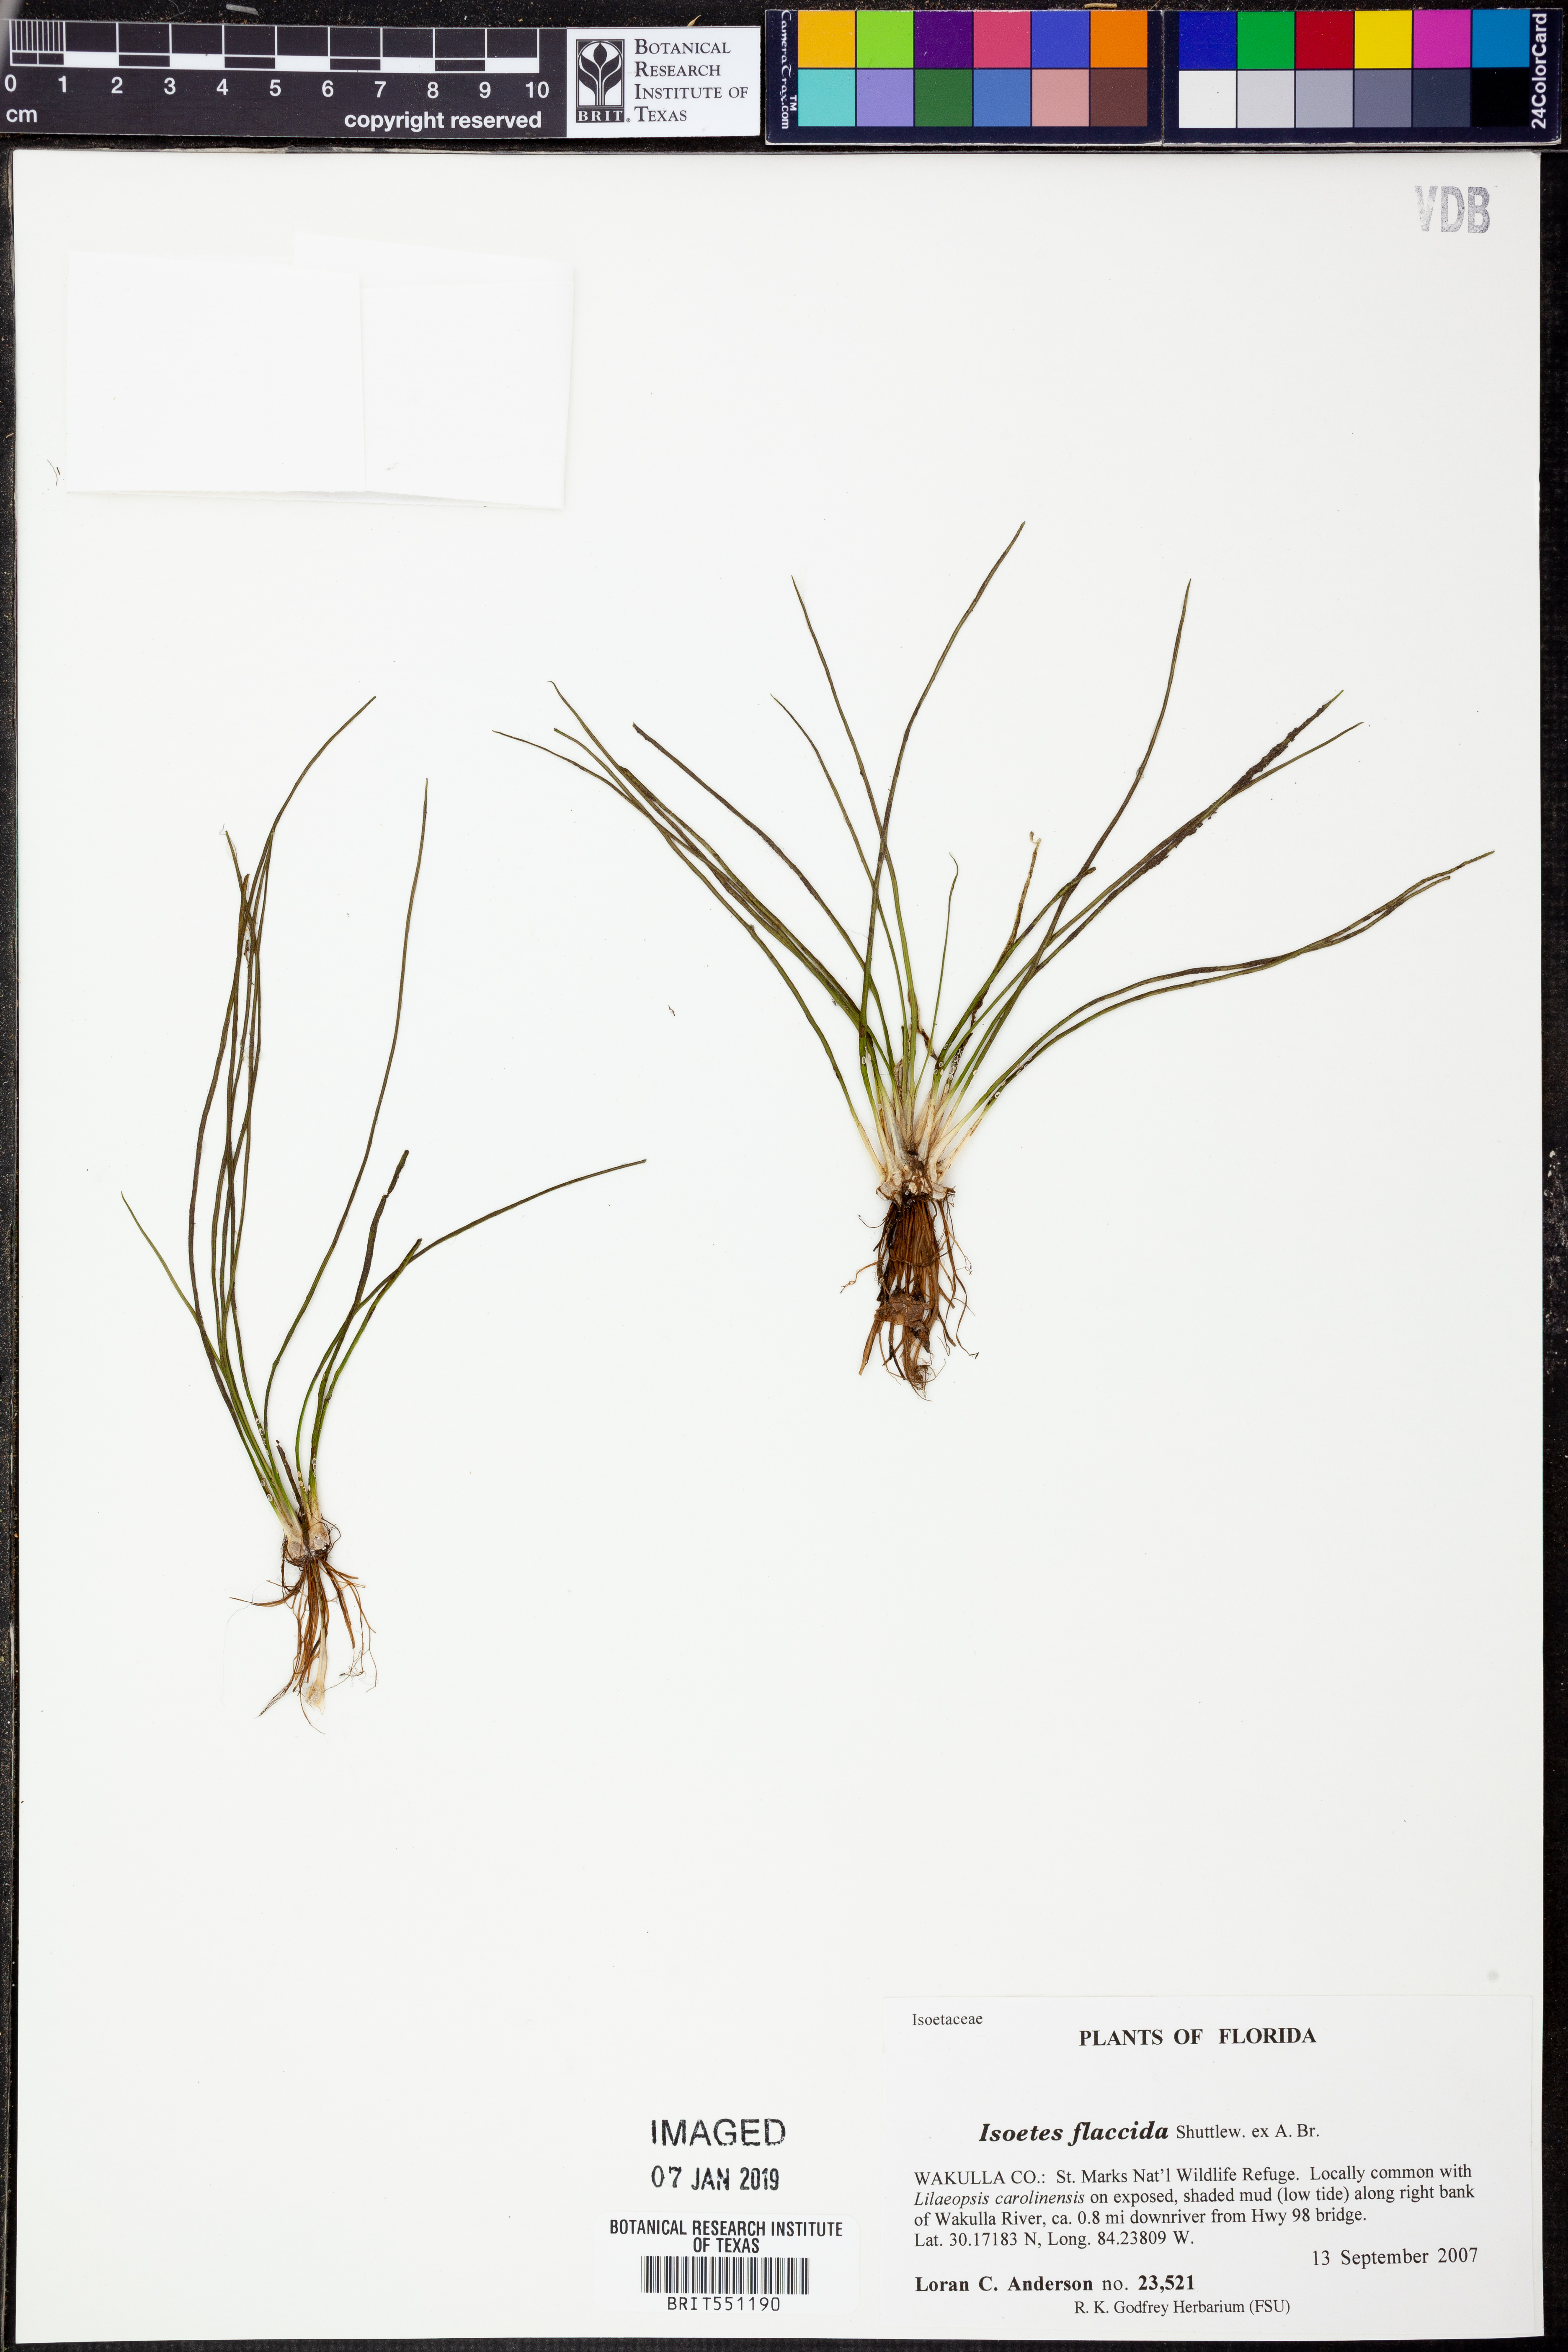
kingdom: Plantae
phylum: Tracheophyta
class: Lycopodiopsida
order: Isoetales
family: Isoetaceae
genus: Isoetes
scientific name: Isoetes flaccida
